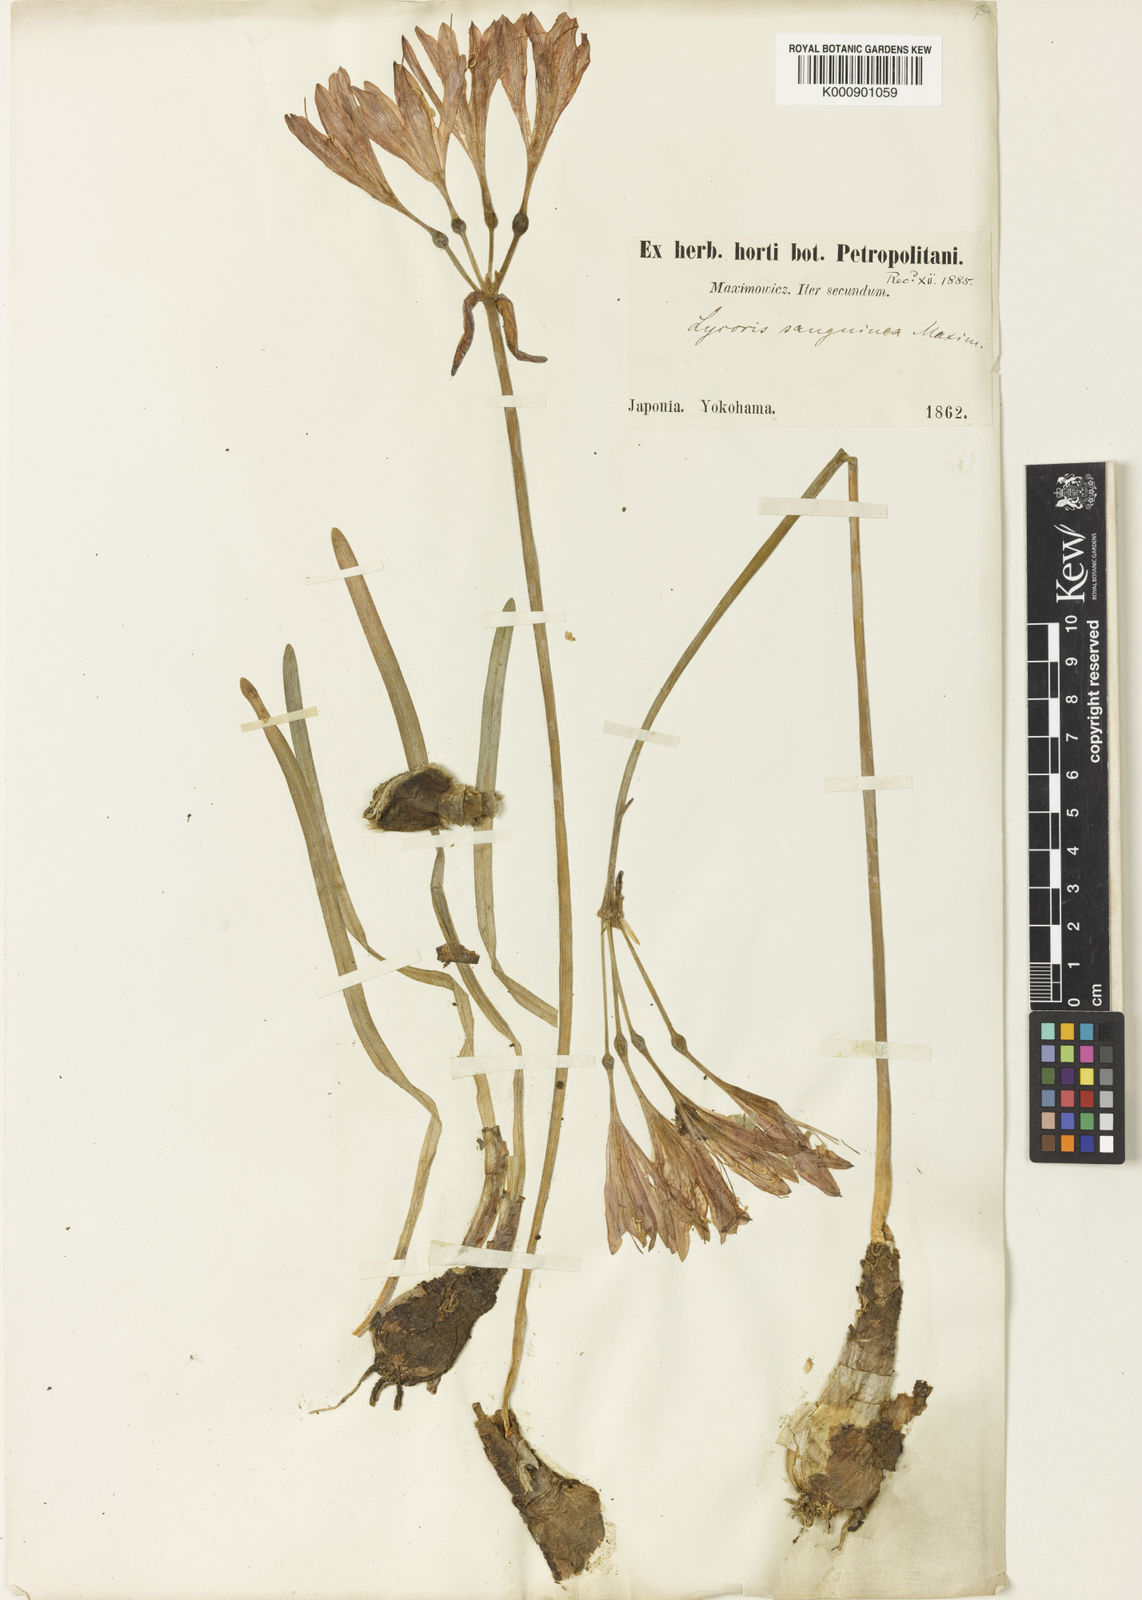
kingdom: Plantae
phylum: Tracheophyta
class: Liliopsida
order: Asparagales
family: Amaryllidaceae
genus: Lycoris
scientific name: Lycoris sanguinea
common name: Spider-lily
